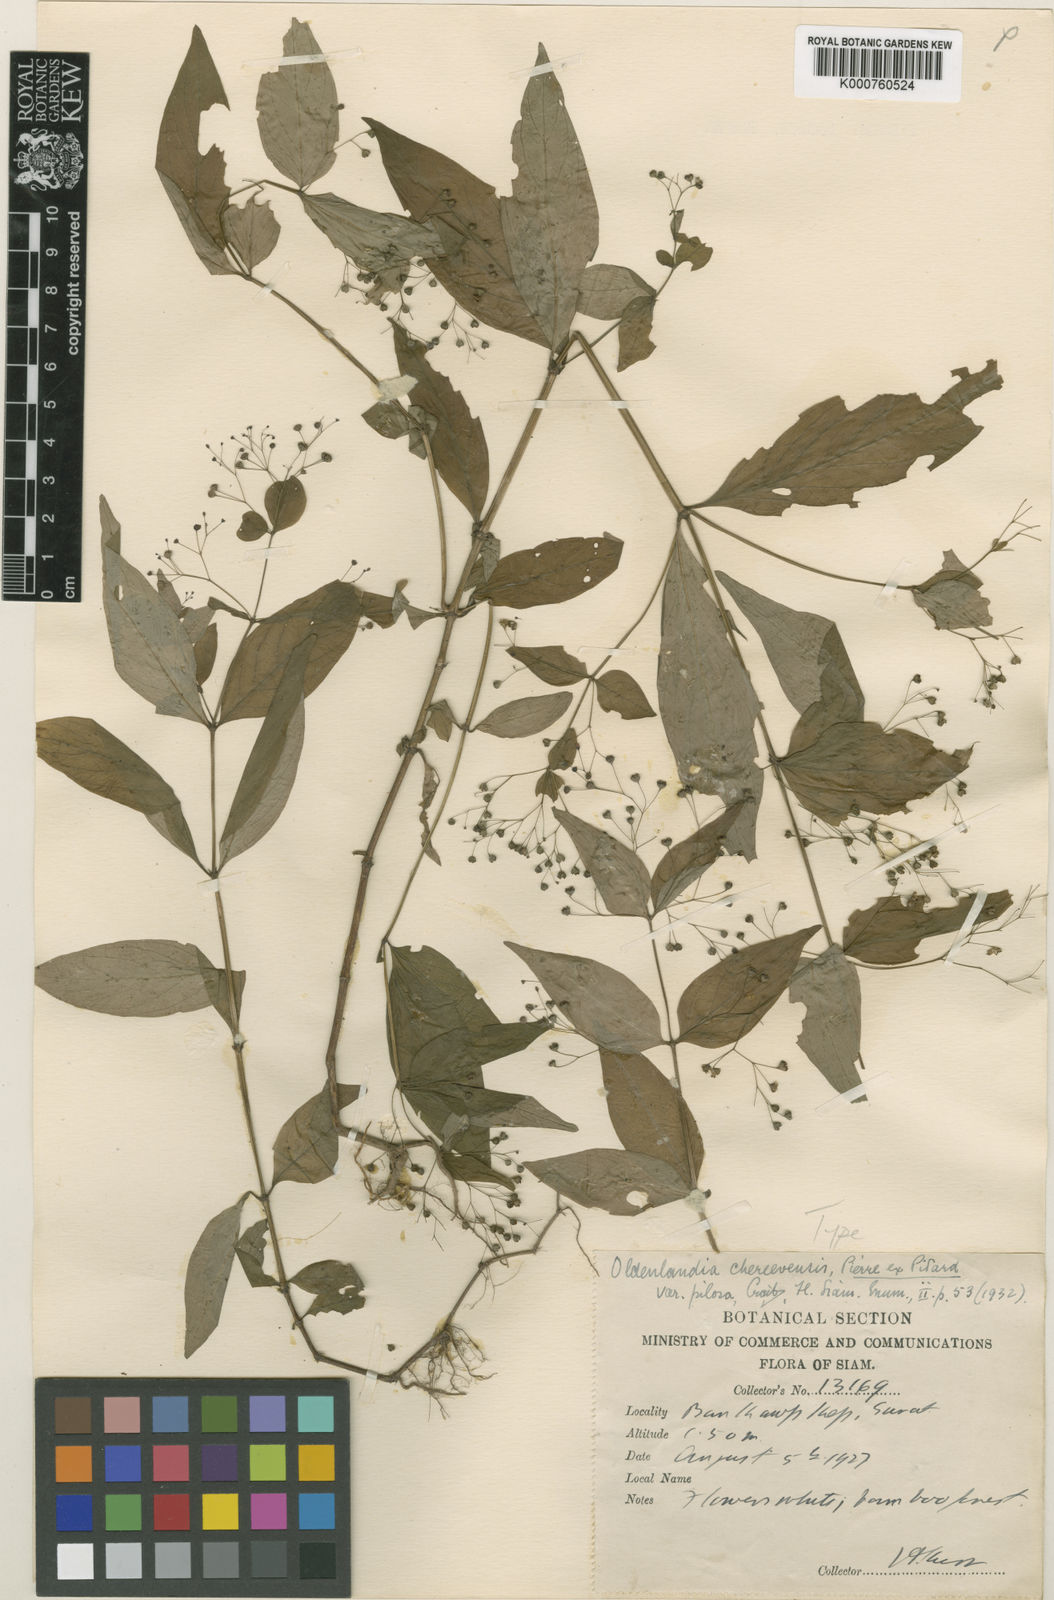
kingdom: Plantae
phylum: Tracheophyta
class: Magnoliopsida
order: Gentianales
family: Rubiaceae
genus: Involucrella
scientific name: Involucrella chereevensis
